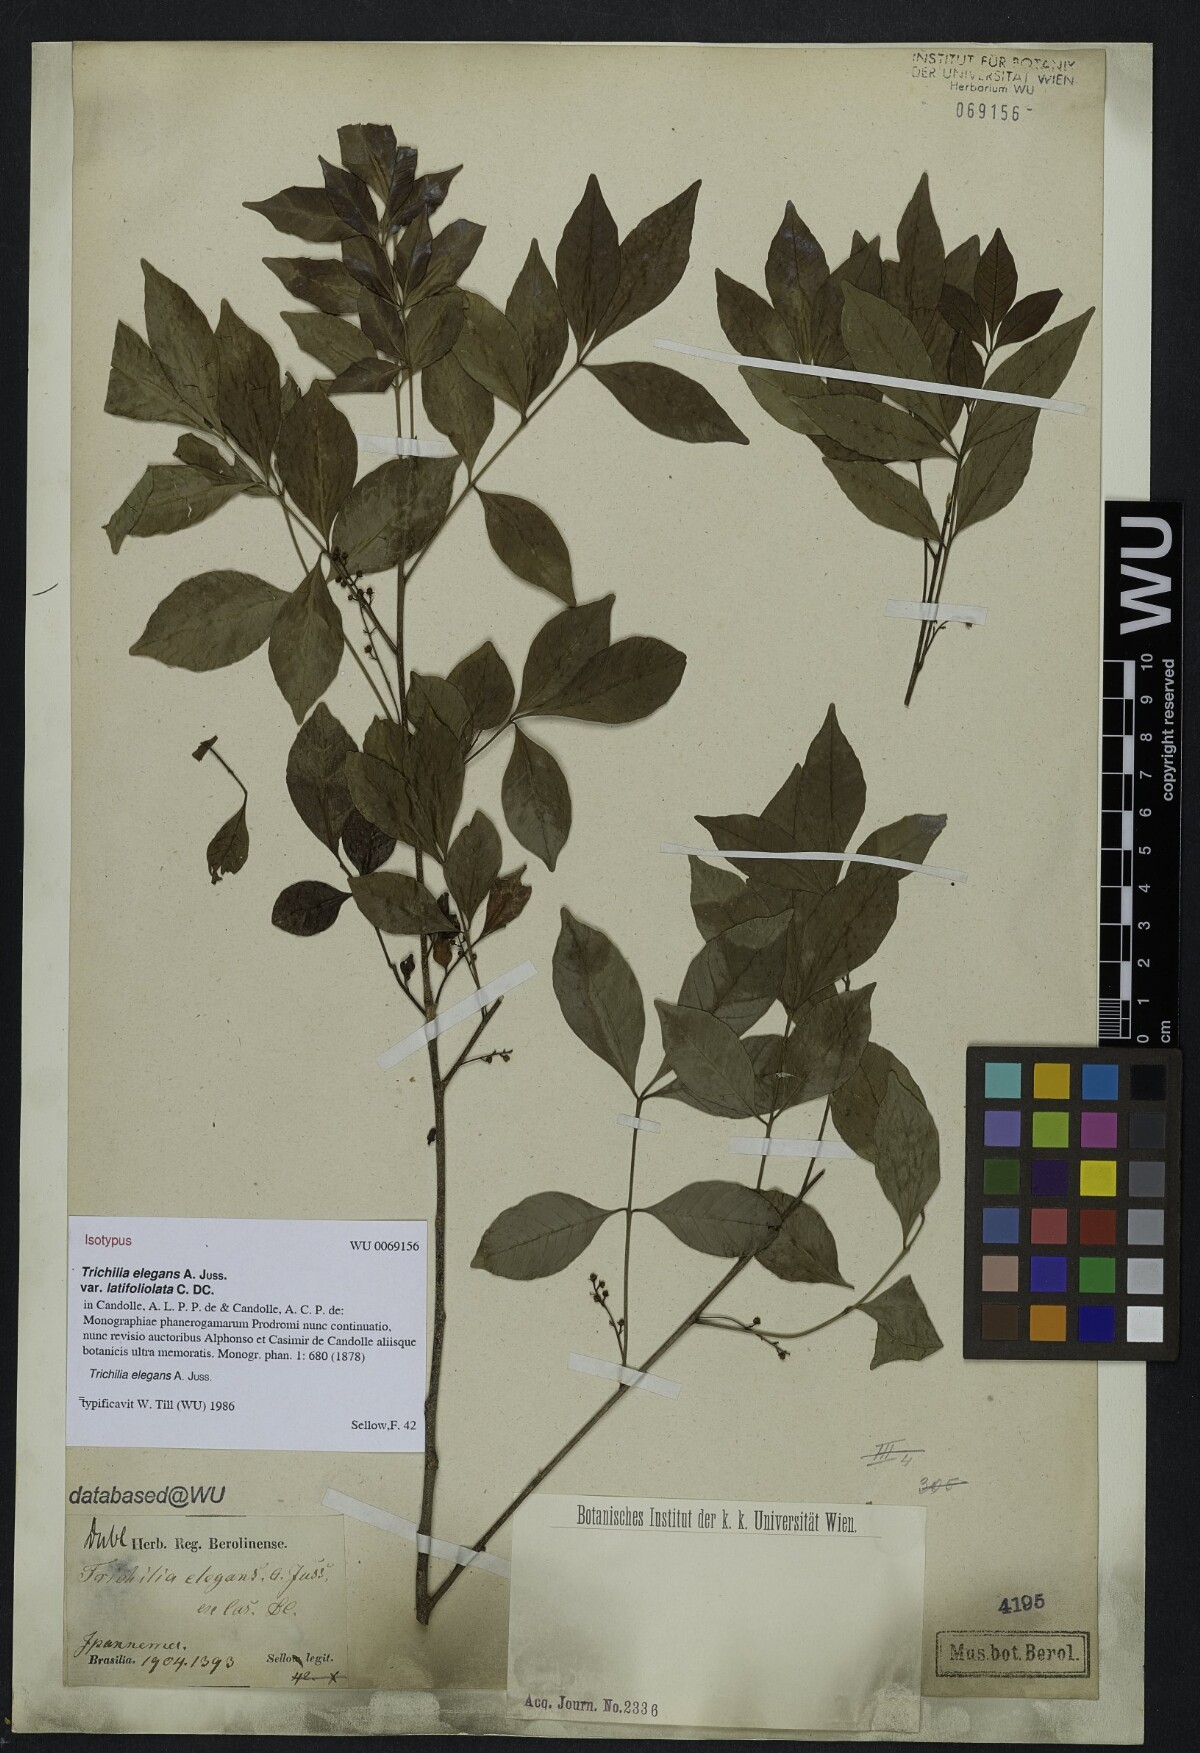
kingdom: Plantae
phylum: Tracheophyta
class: Magnoliopsida
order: Sapindales
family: Meliaceae
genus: Trichilia
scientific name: Trichilia elegans
